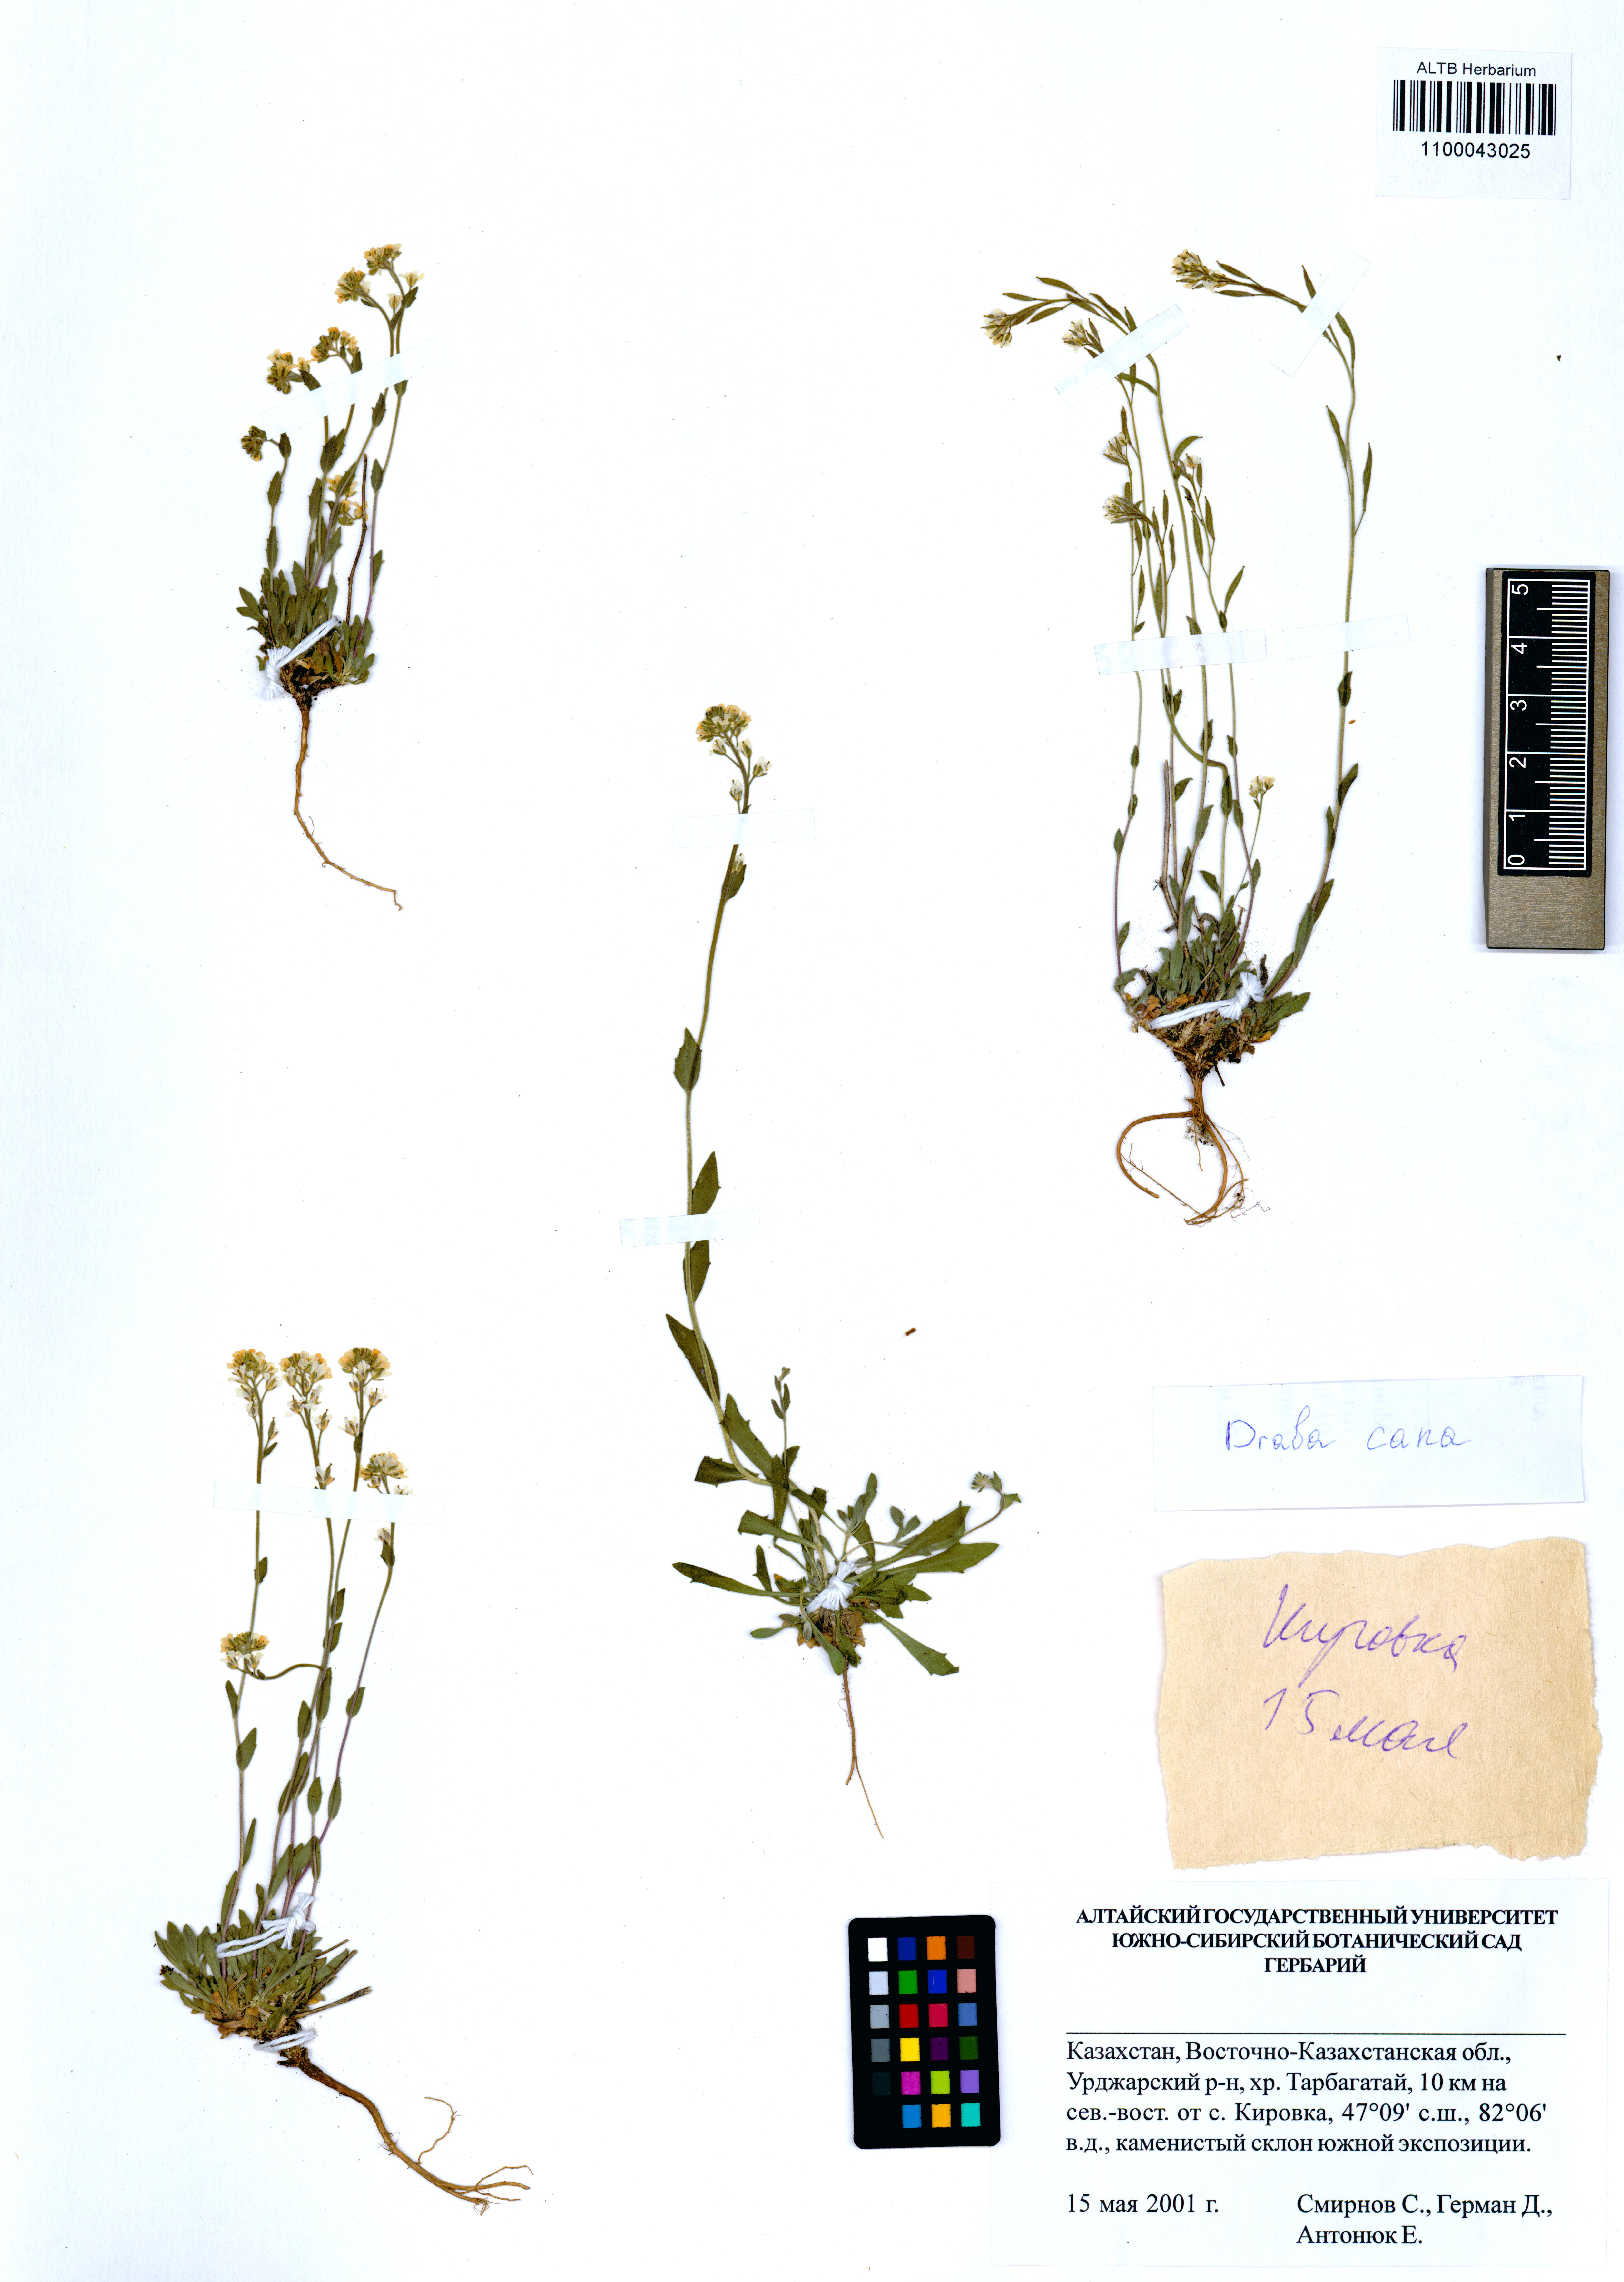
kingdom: Plantae
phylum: Tracheophyta
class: Magnoliopsida
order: Brassicales
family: Brassicaceae
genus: Draba
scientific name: Draba cana
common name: Hoary draba
